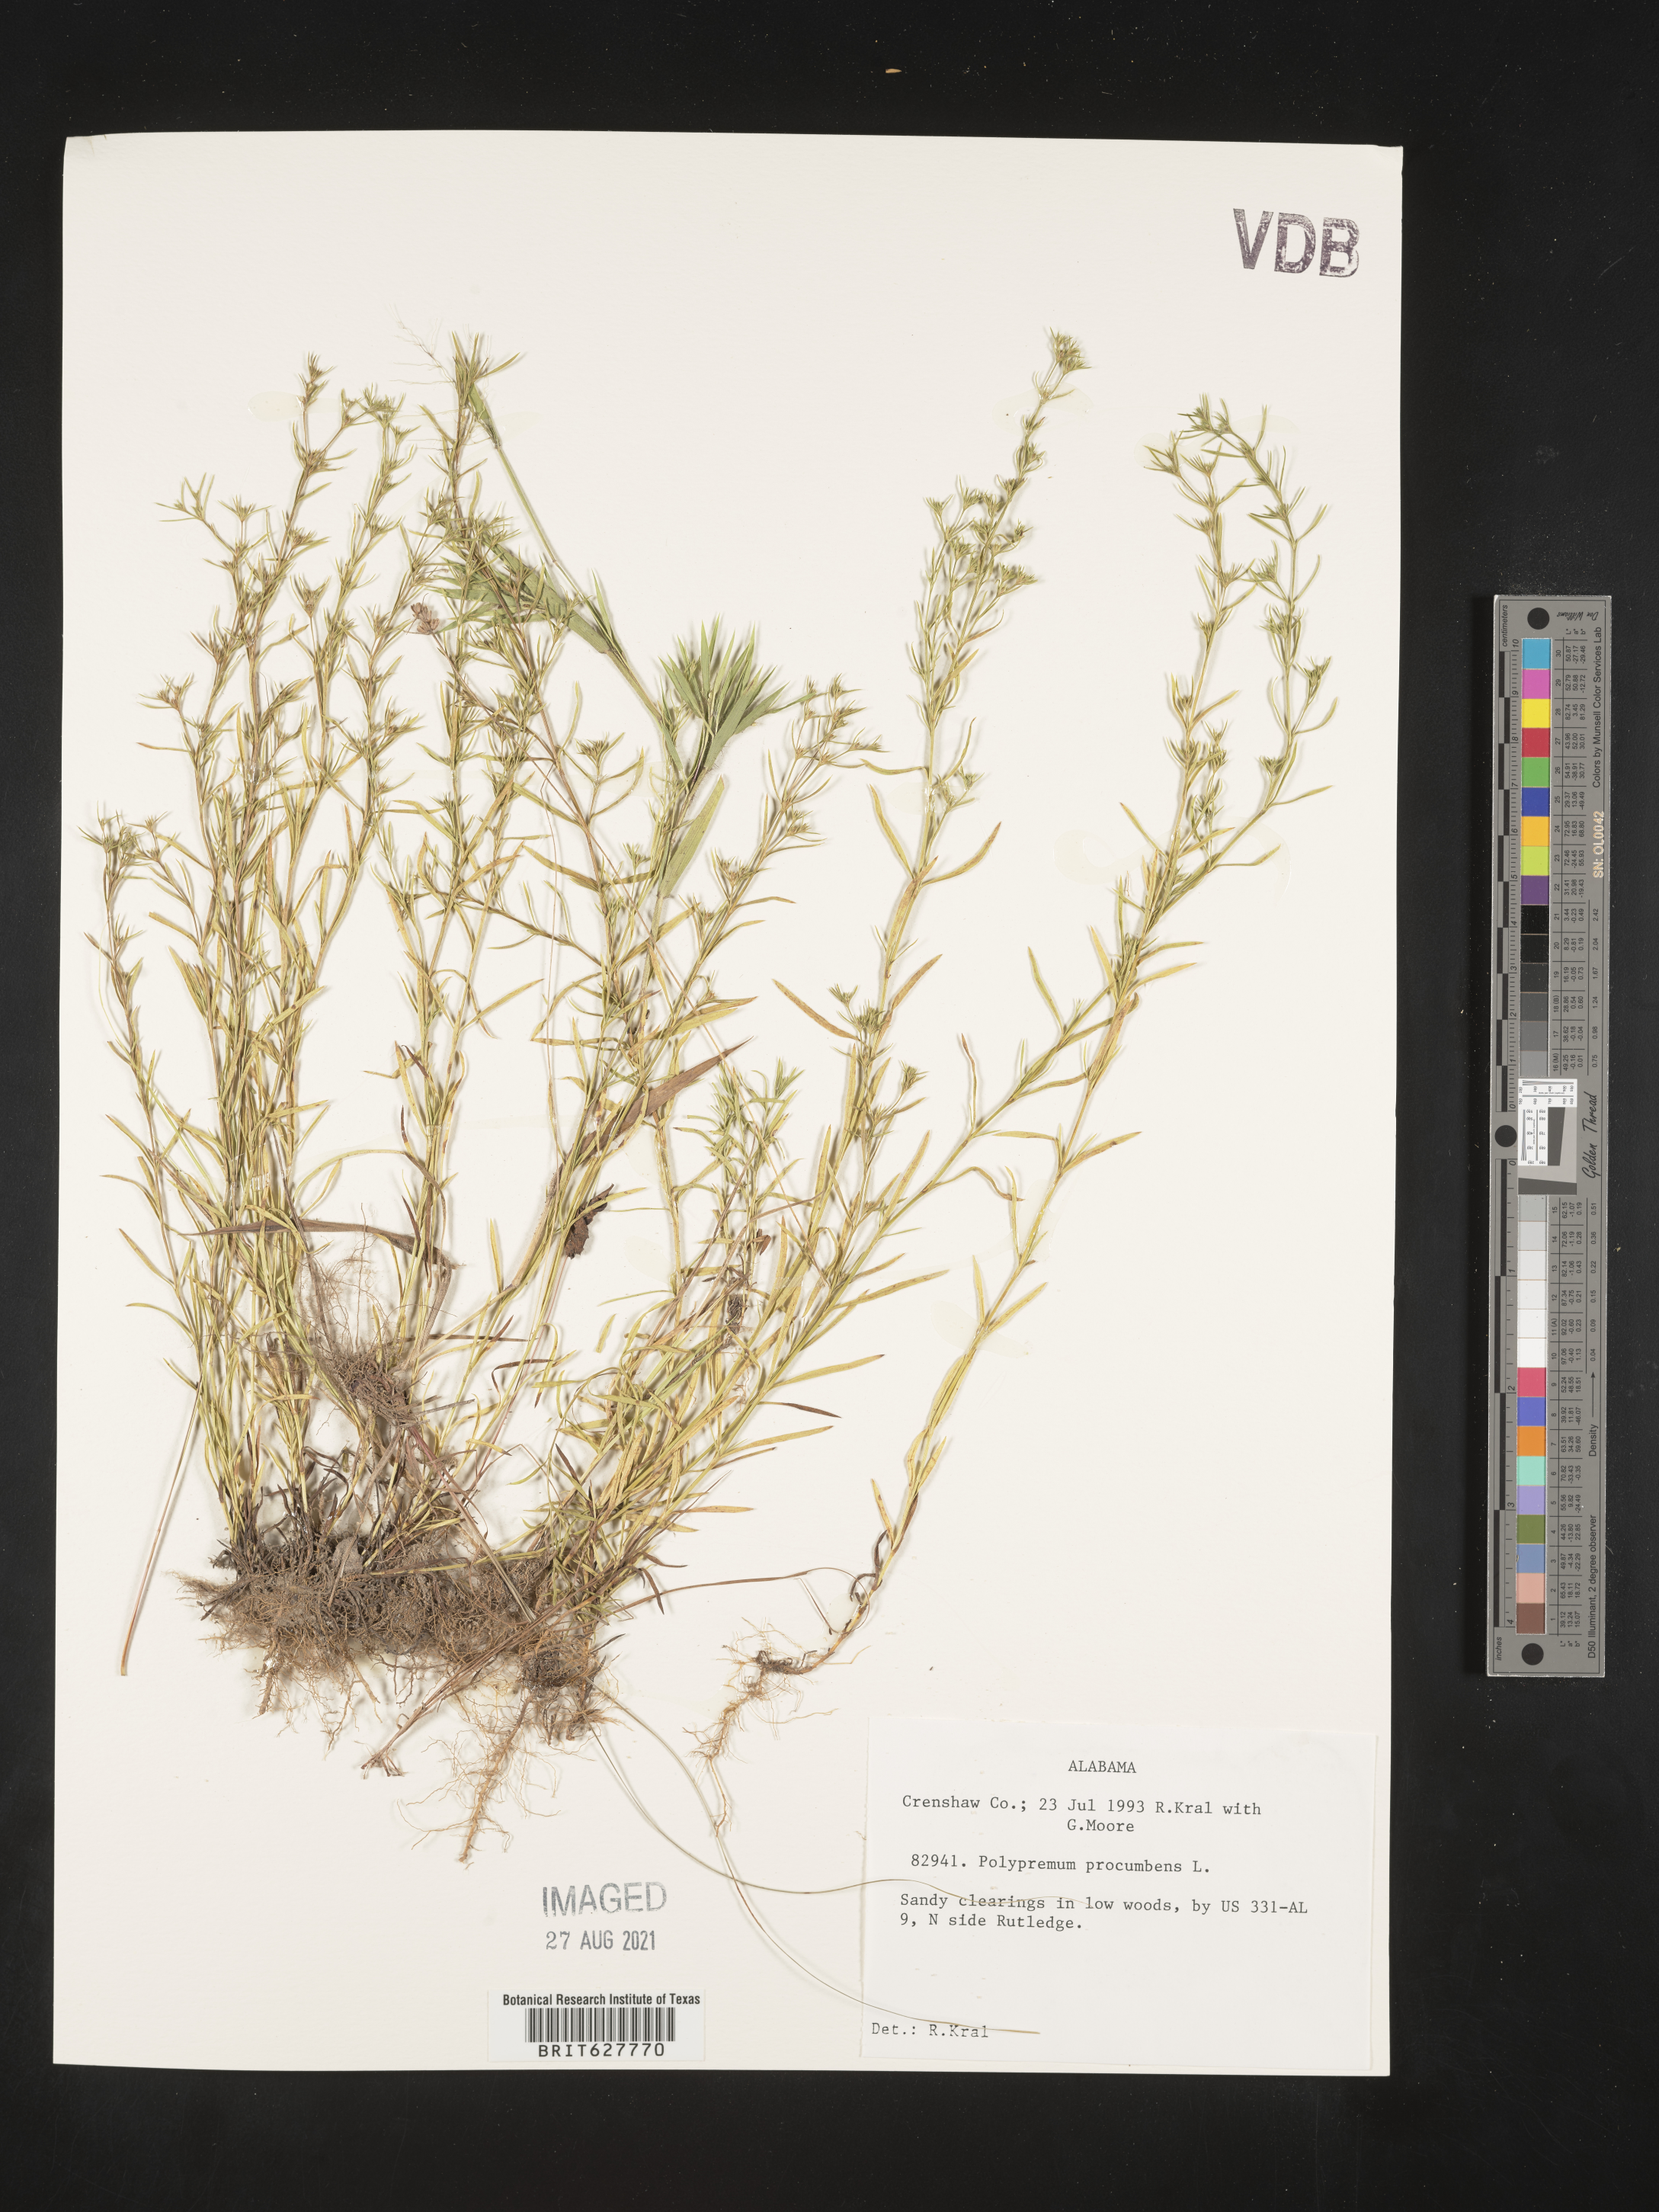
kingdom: Plantae
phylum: Tracheophyta
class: Magnoliopsida
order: Lamiales
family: Tetrachondraceae
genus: Polypremum
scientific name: Polypremum procumbens
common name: Juniper-leaf
